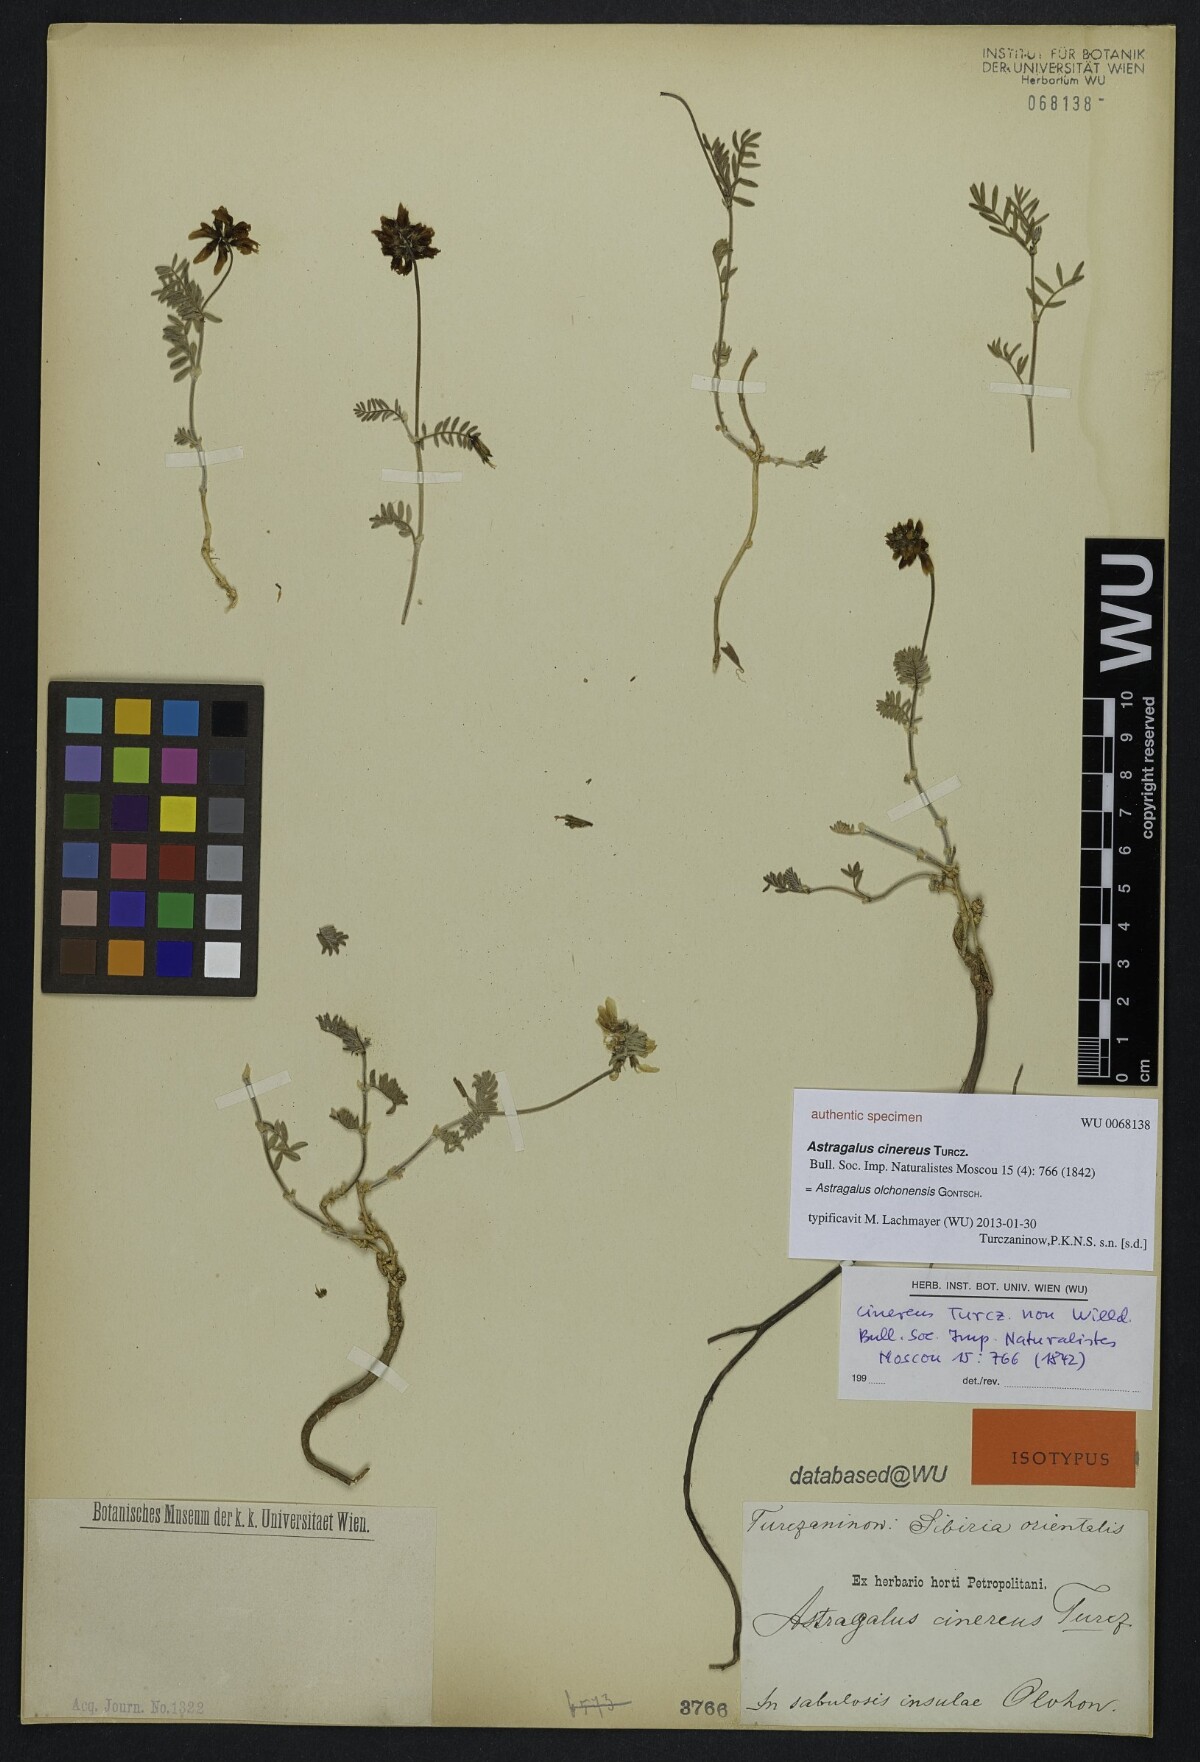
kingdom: Plantae
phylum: Tracheophyta
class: Magnoliopsida
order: Fabales
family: Fabaceae
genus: Astragalus
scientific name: Astragalus olchonensis
